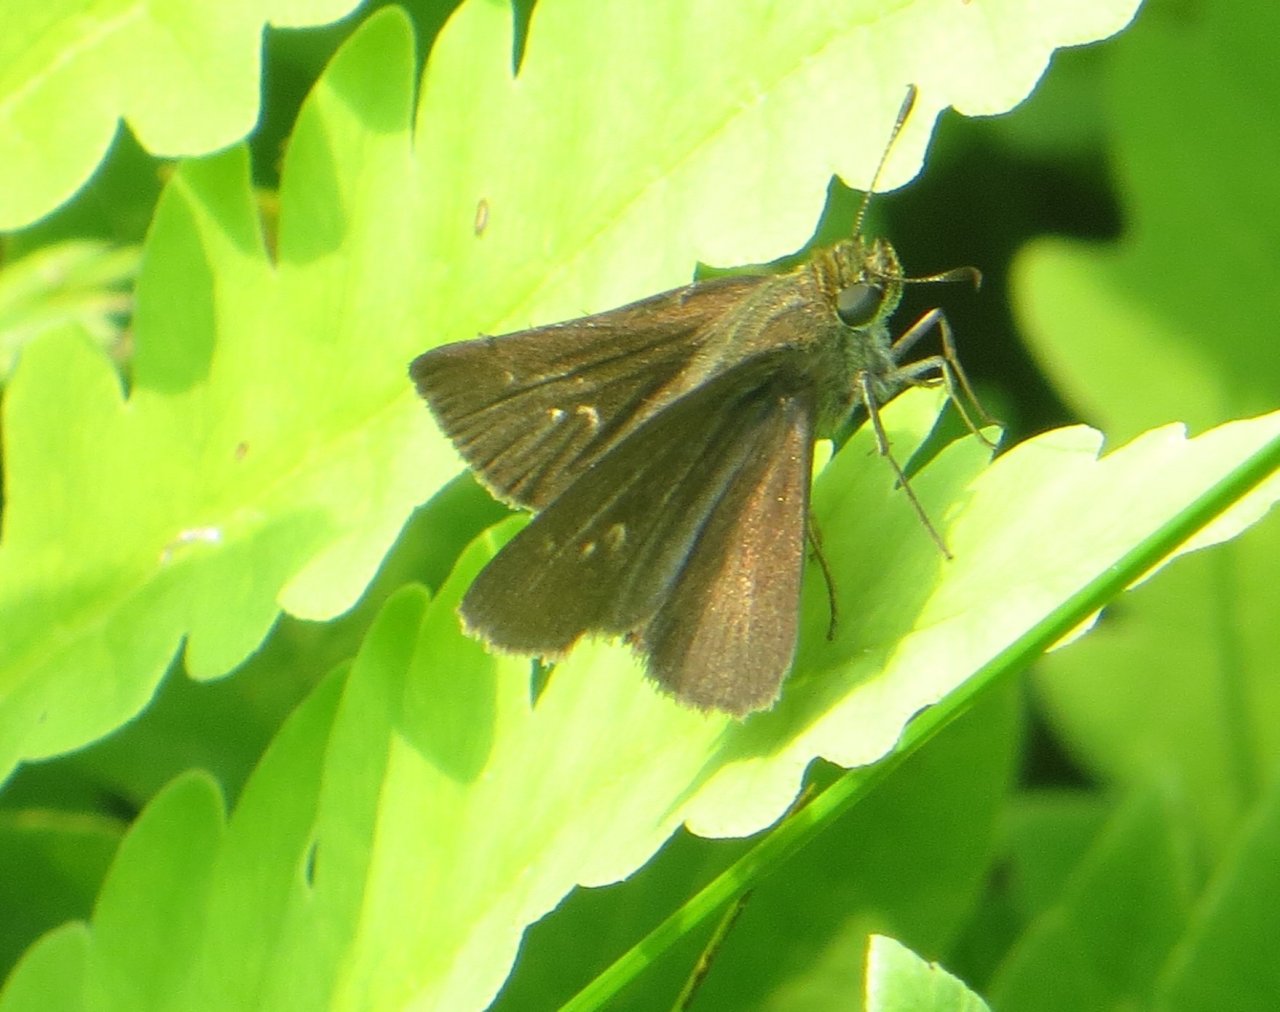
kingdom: Animalia
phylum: Arthropoda
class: Insecta
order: Lepidoptera
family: Hesperiidae
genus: Euphyes
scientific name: Euphyes vestris
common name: Dun Skipper
